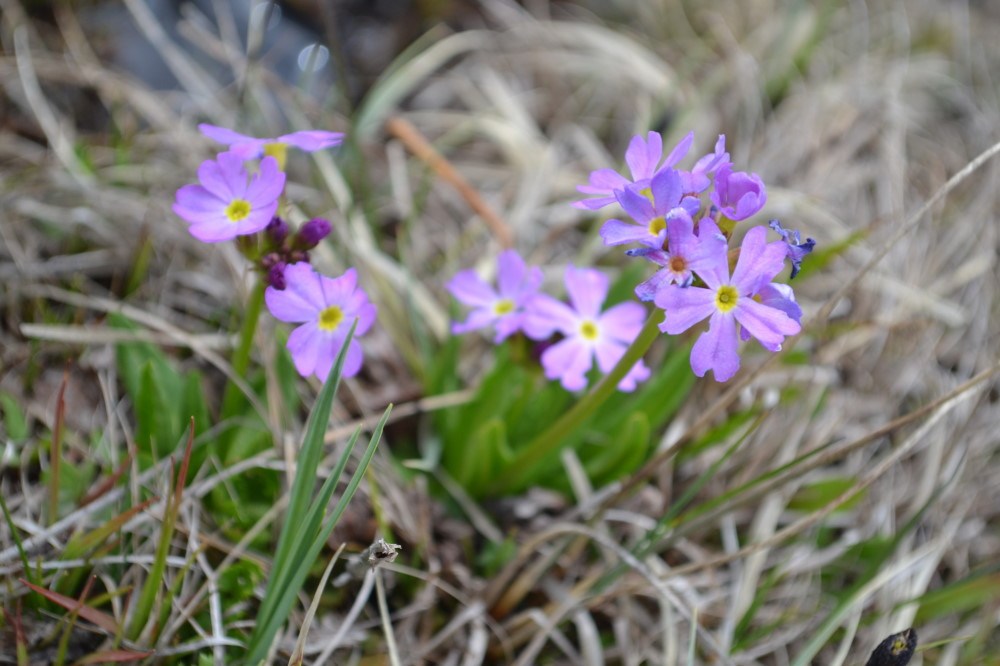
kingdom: Plantae
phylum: Tracheophyta
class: Magnoliopsida
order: Ericales
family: Primulaceae
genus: Primula
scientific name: Primula auriculata
